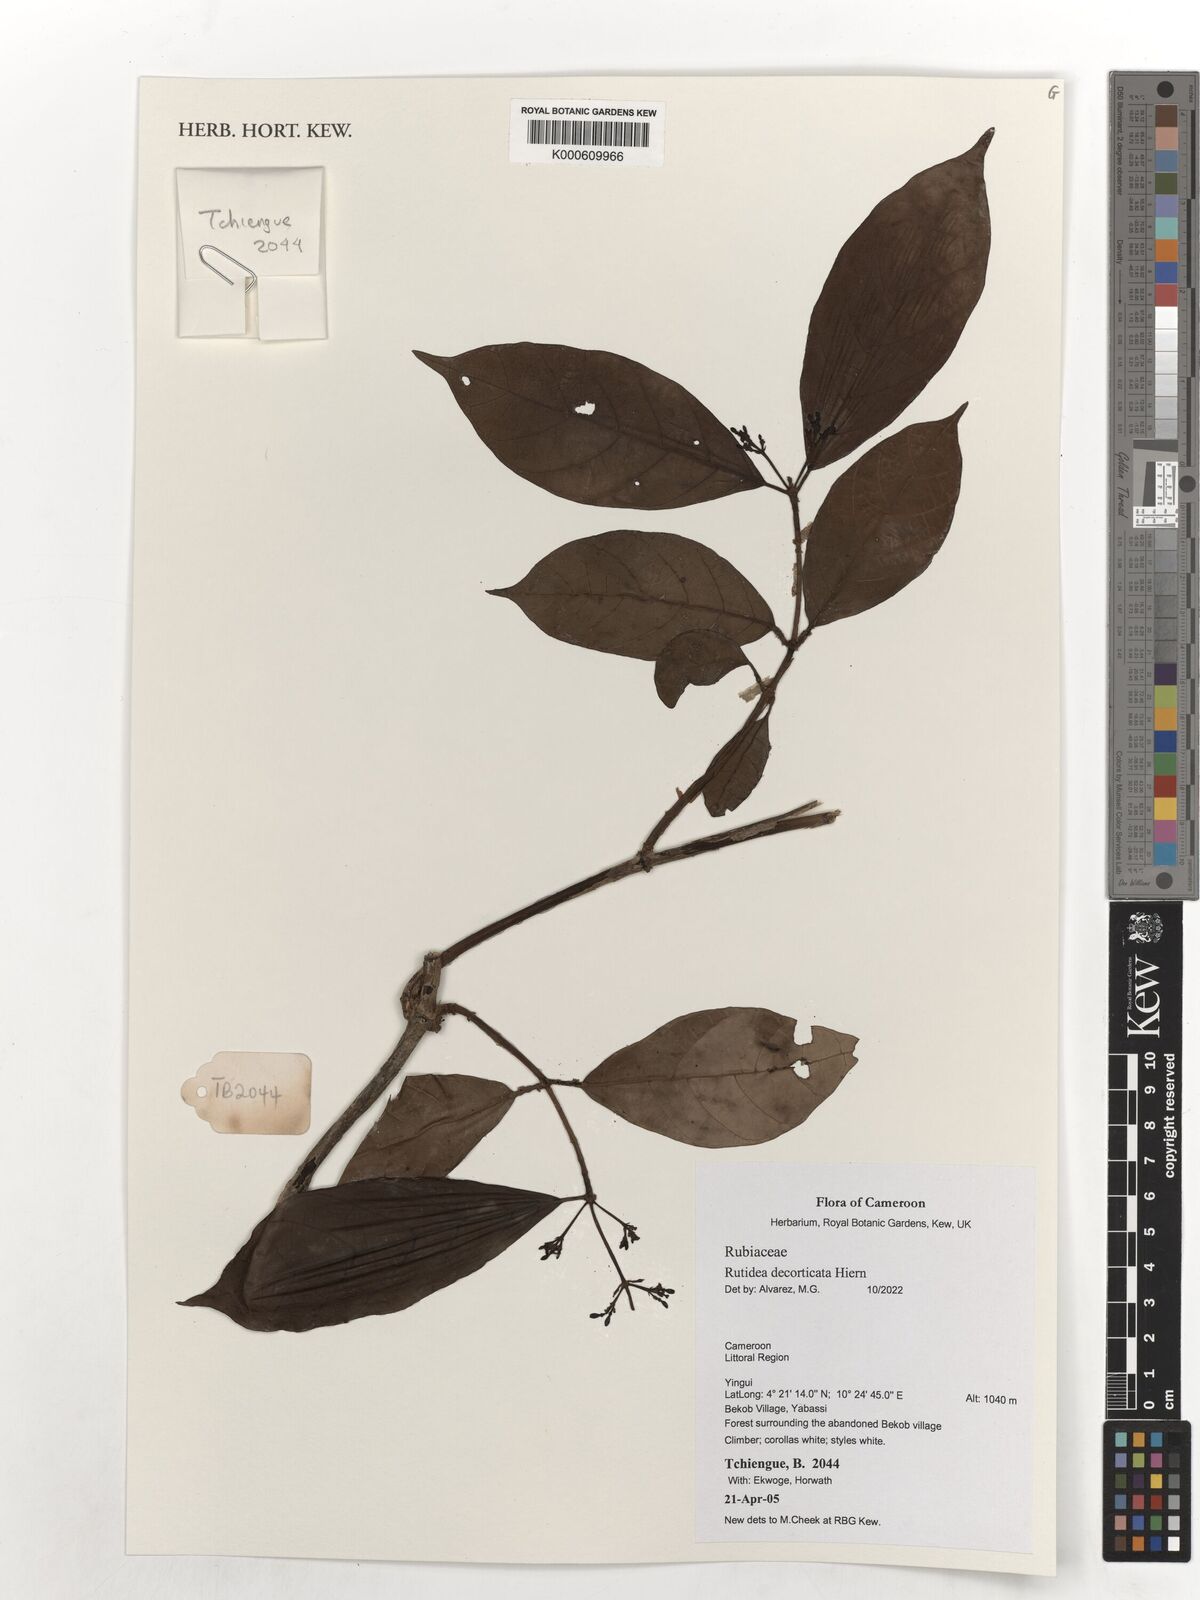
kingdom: Plantae
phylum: Tracheophyta
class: Magnoliopsida
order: Gentianales
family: Rubiaceae
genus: Rutidea
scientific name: Rutidea decorticata
